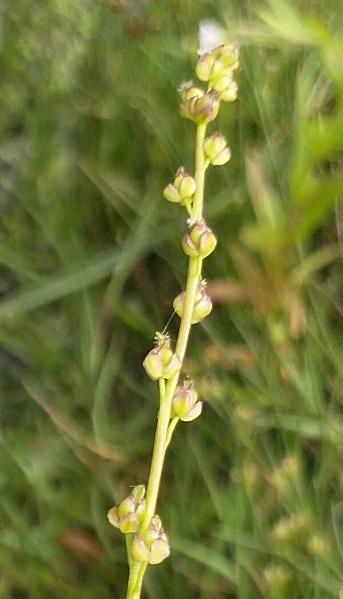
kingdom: Plantae
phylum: Tracheophyta
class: Liliopsida
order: Alismatales
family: Juncaginaceae
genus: Triglochin
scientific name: Triglochin palustris
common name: Kær-trehage
